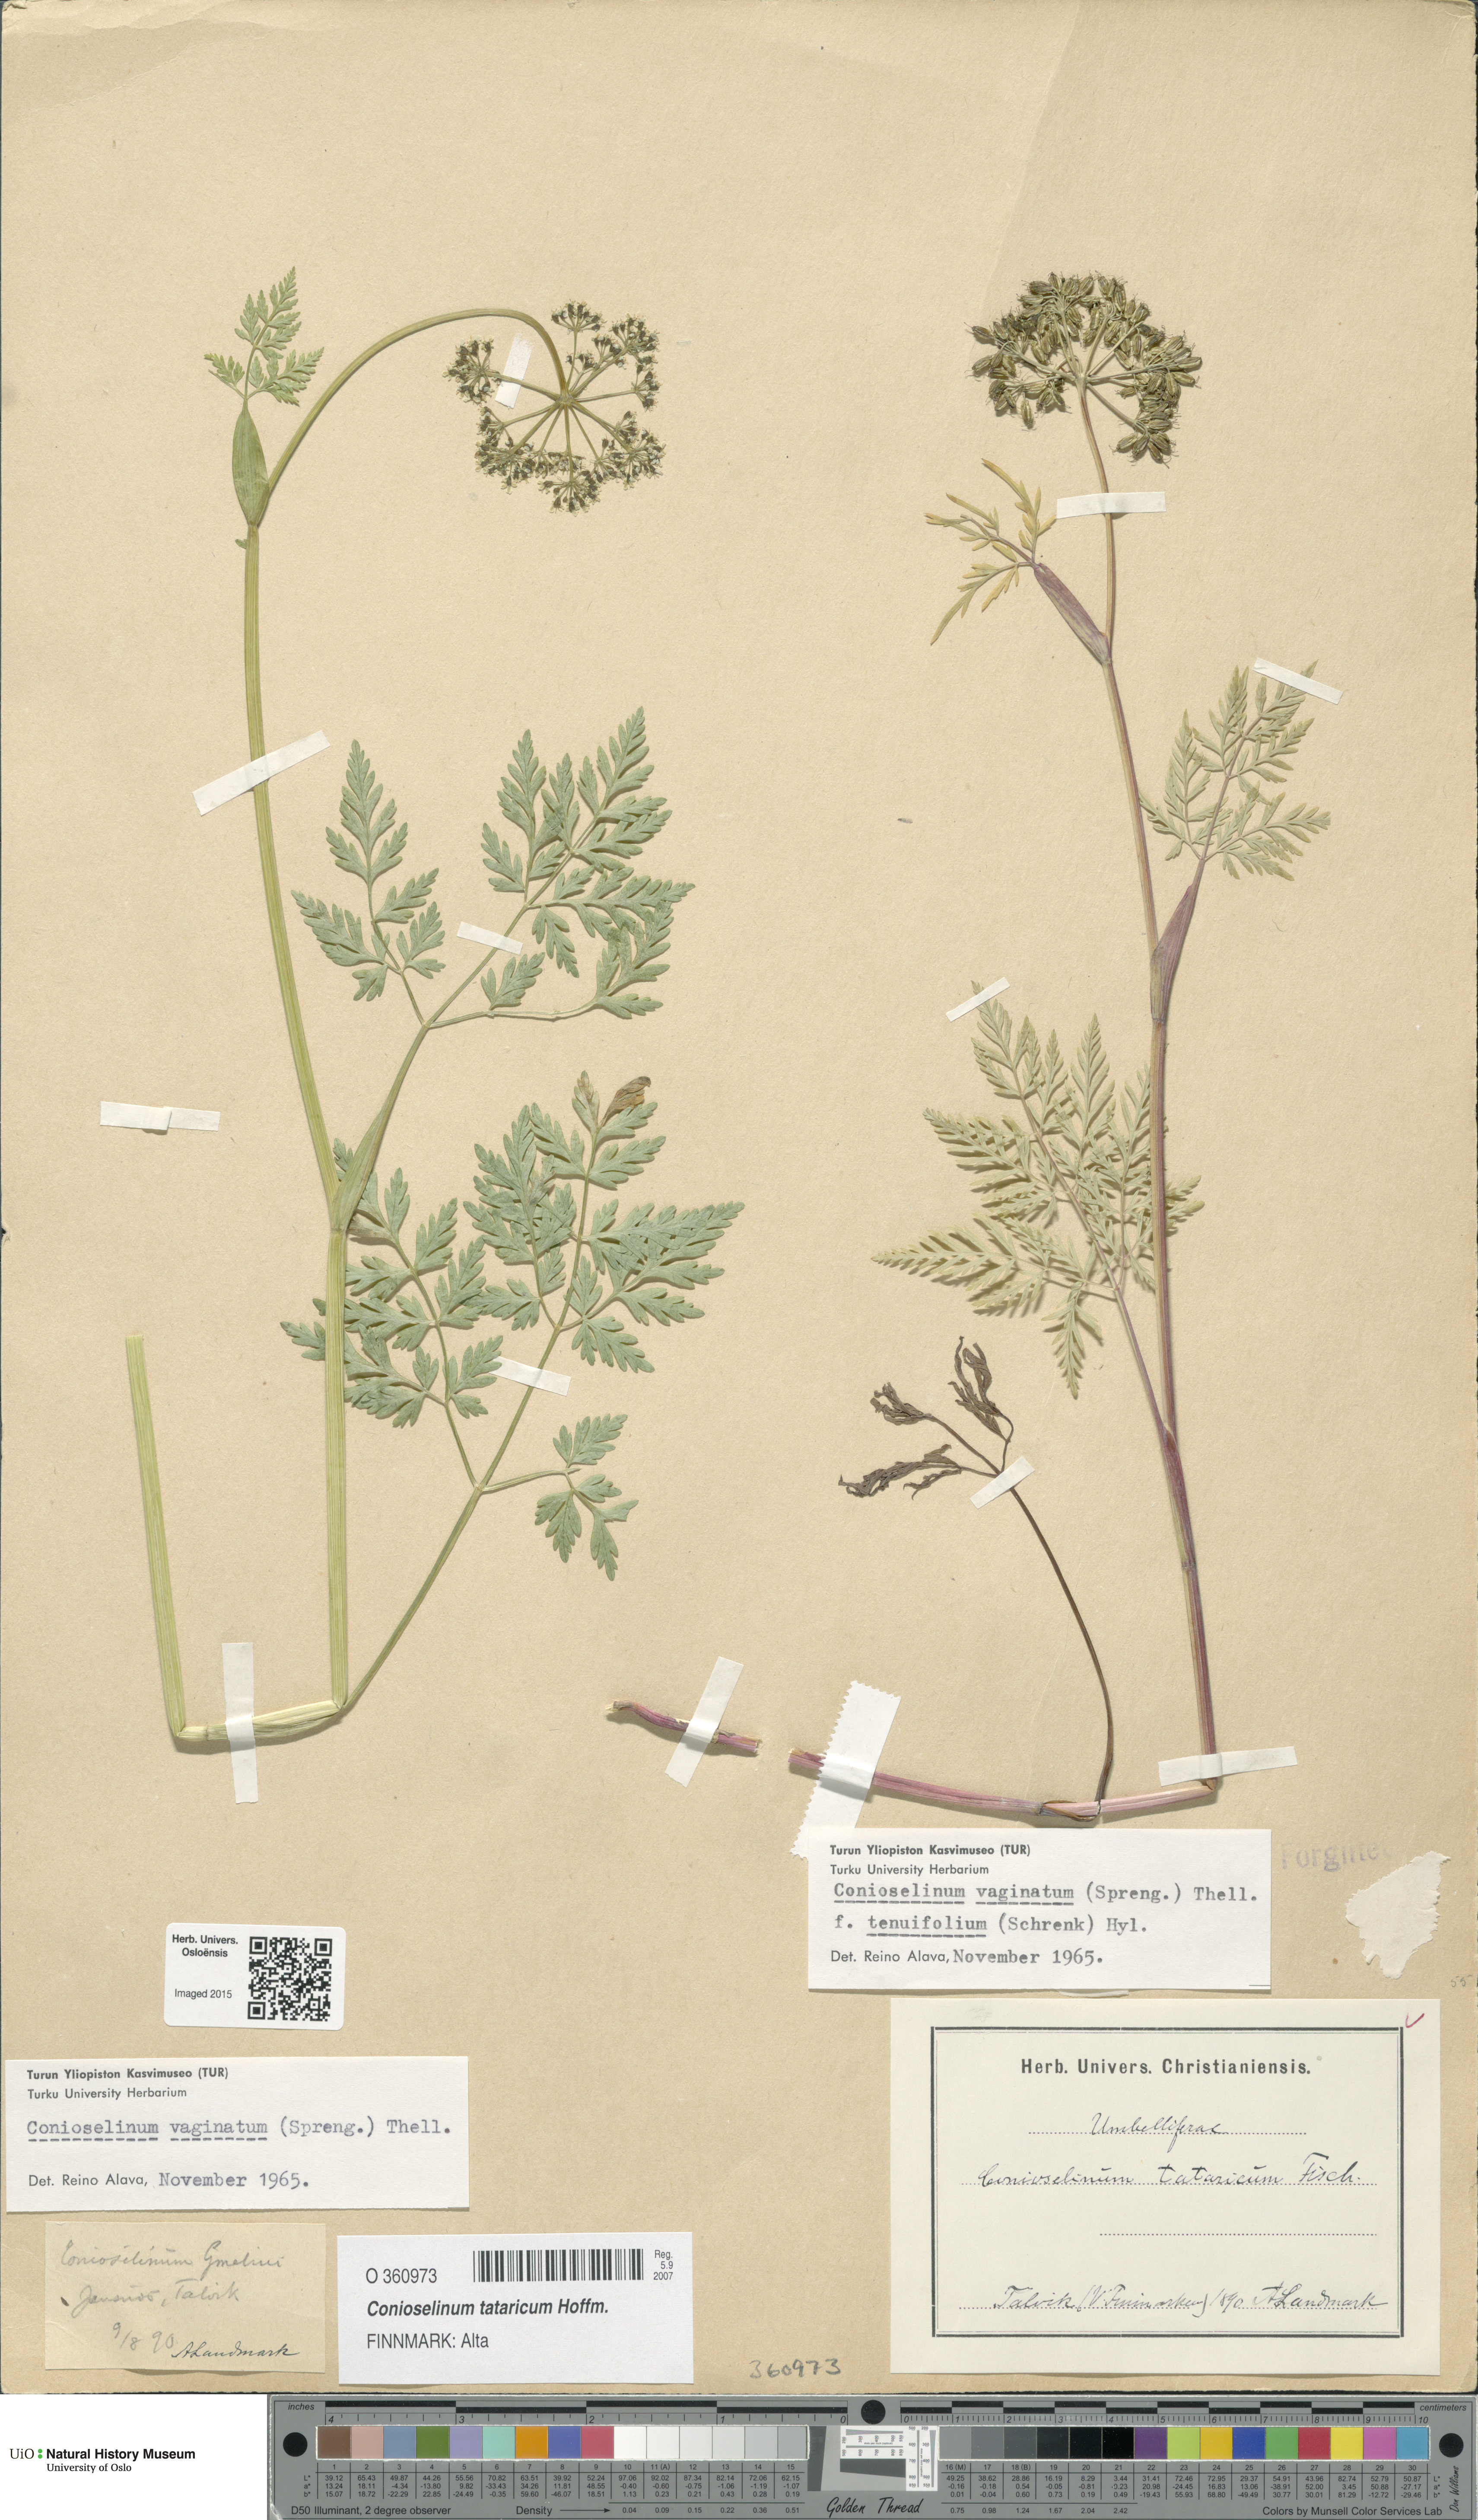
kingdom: Plantae
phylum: Tracheophyta
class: Magnoliopsida
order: Apiales
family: Apiaceae
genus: Seseli
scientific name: Seseli condensatum
